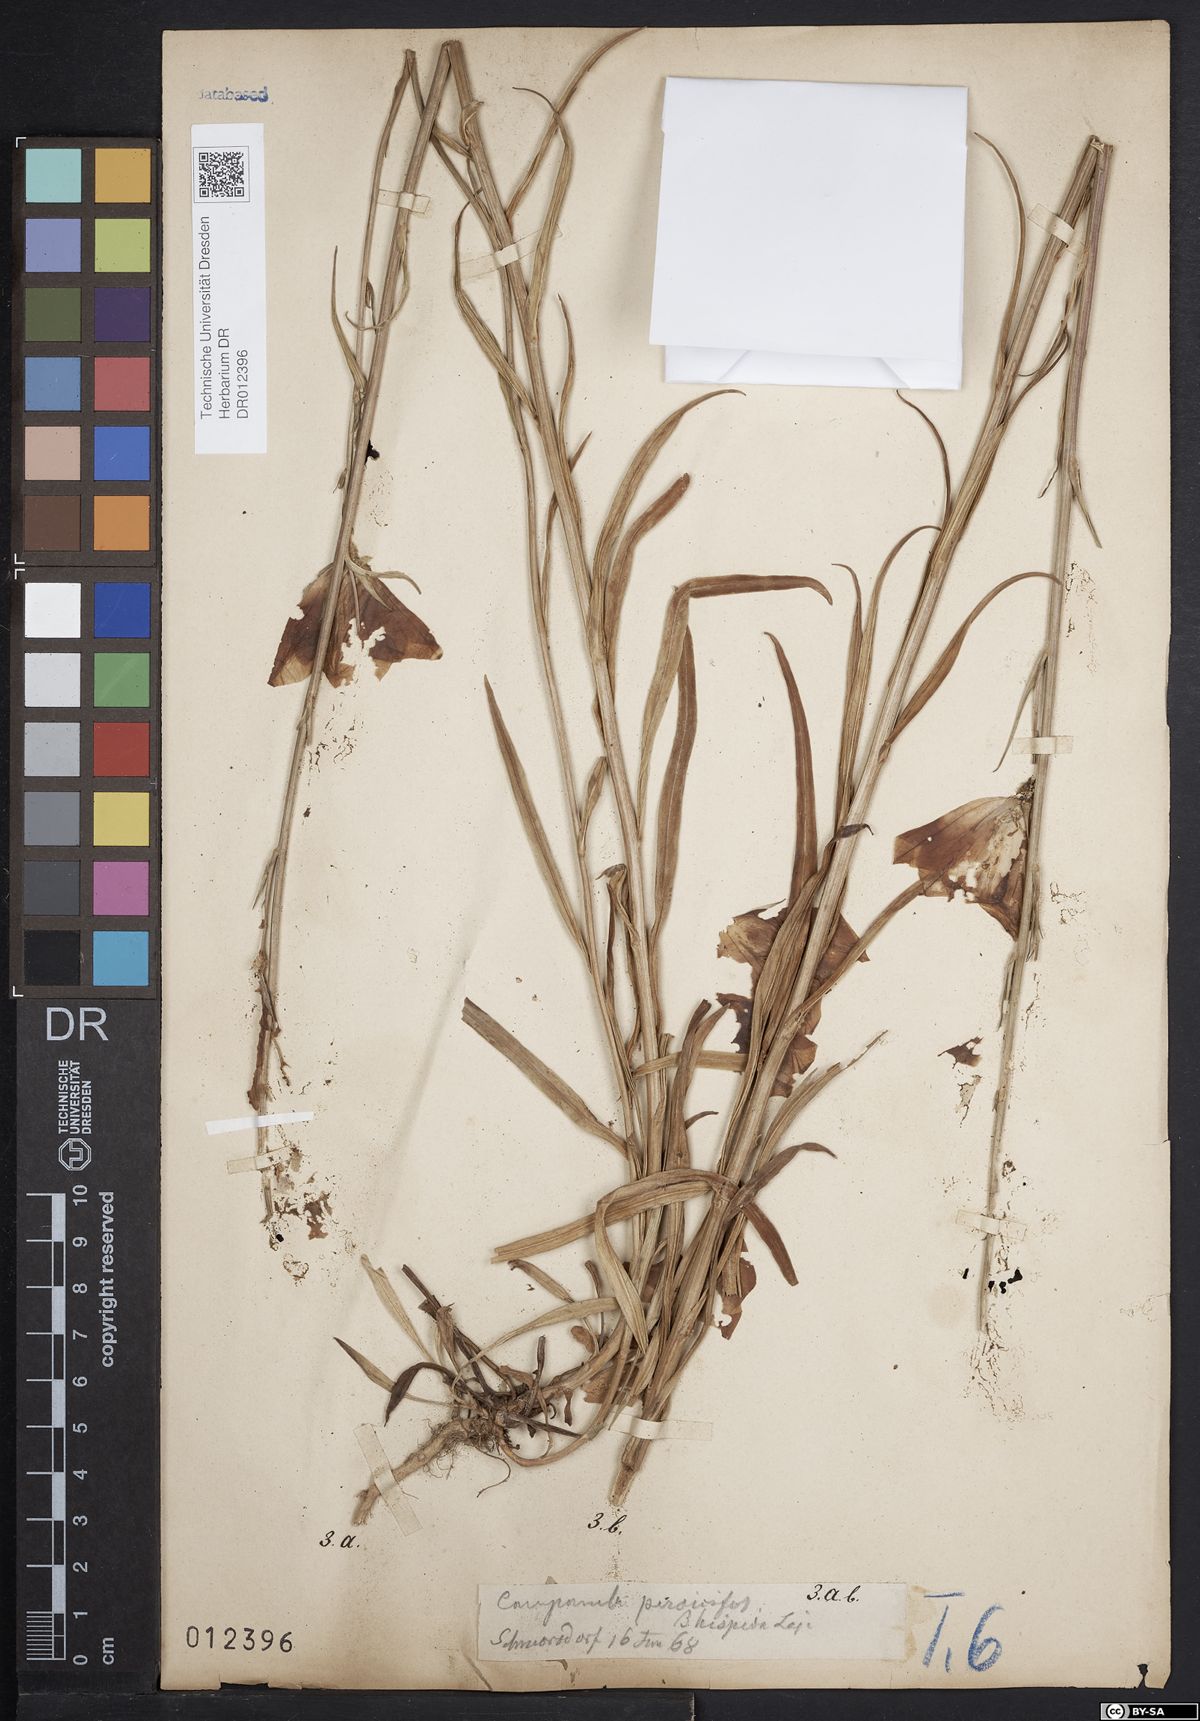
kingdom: Plantae
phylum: Tracheophyta
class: Magnoliopsida
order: Asterales
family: Campanulaceae
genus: Campanula
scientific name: Campanula persicifolia
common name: Peach-leaved bellflower
